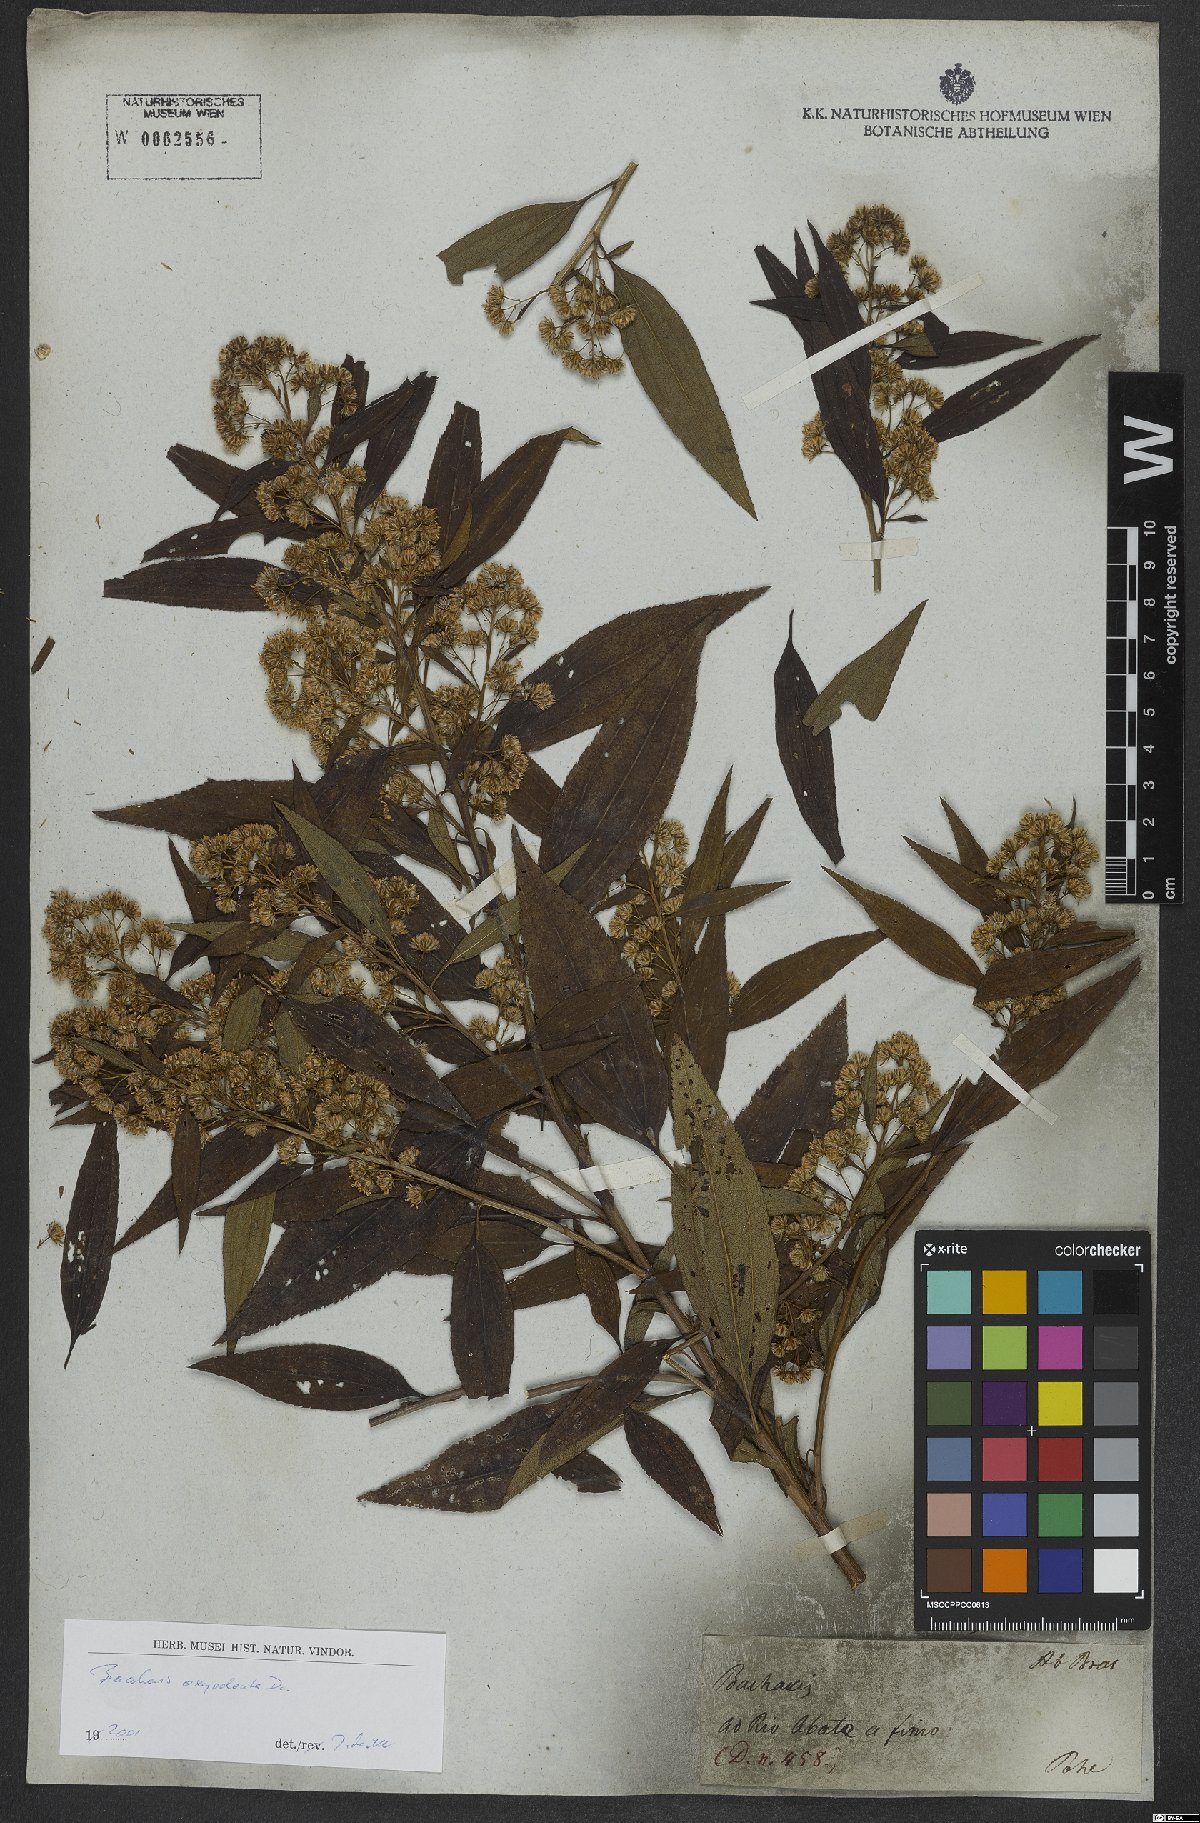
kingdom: Plantae
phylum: Tracheophyta
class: Magnoliopsida
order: Asterales
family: Asteraceae
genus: Baccharis
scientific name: Baccharis oxyodonta
